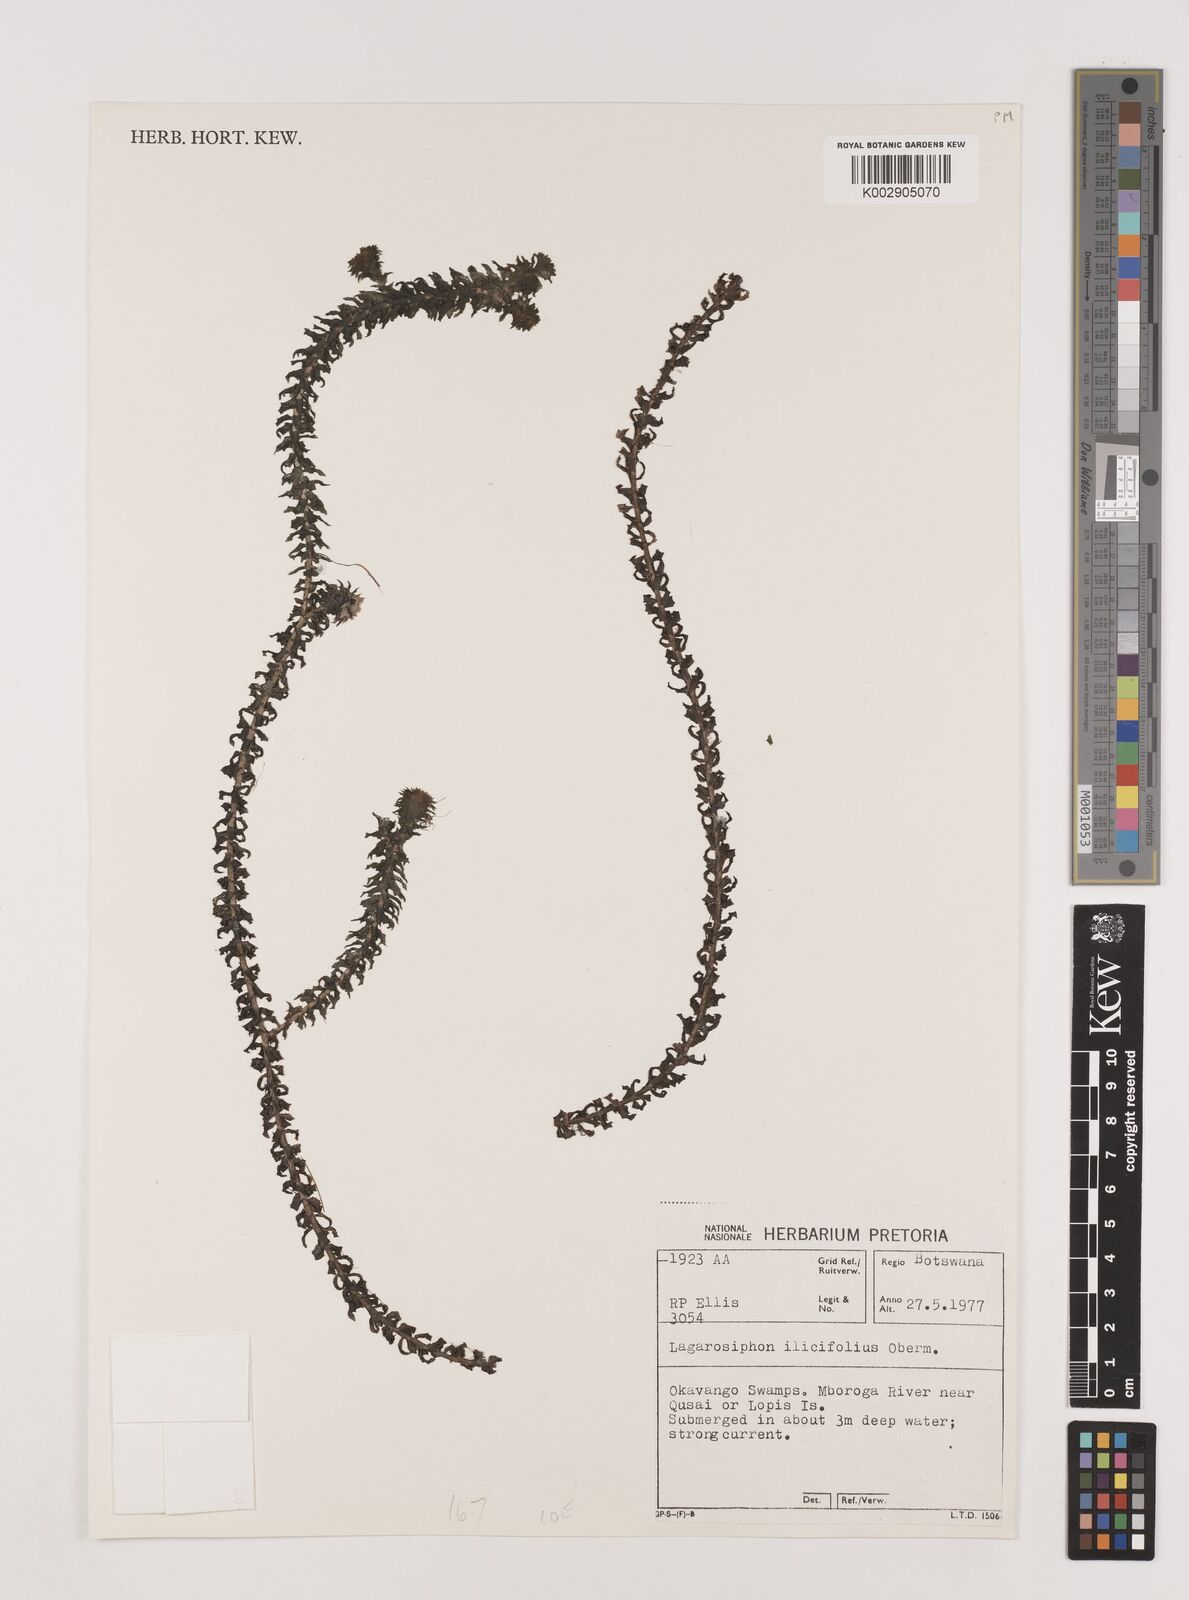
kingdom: Plantae
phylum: Tracheophyta
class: Liliopsida
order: Alismatales
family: Hydrocharitaceae
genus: Lagarosiphon
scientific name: Lagarosiphon ilicifolius
